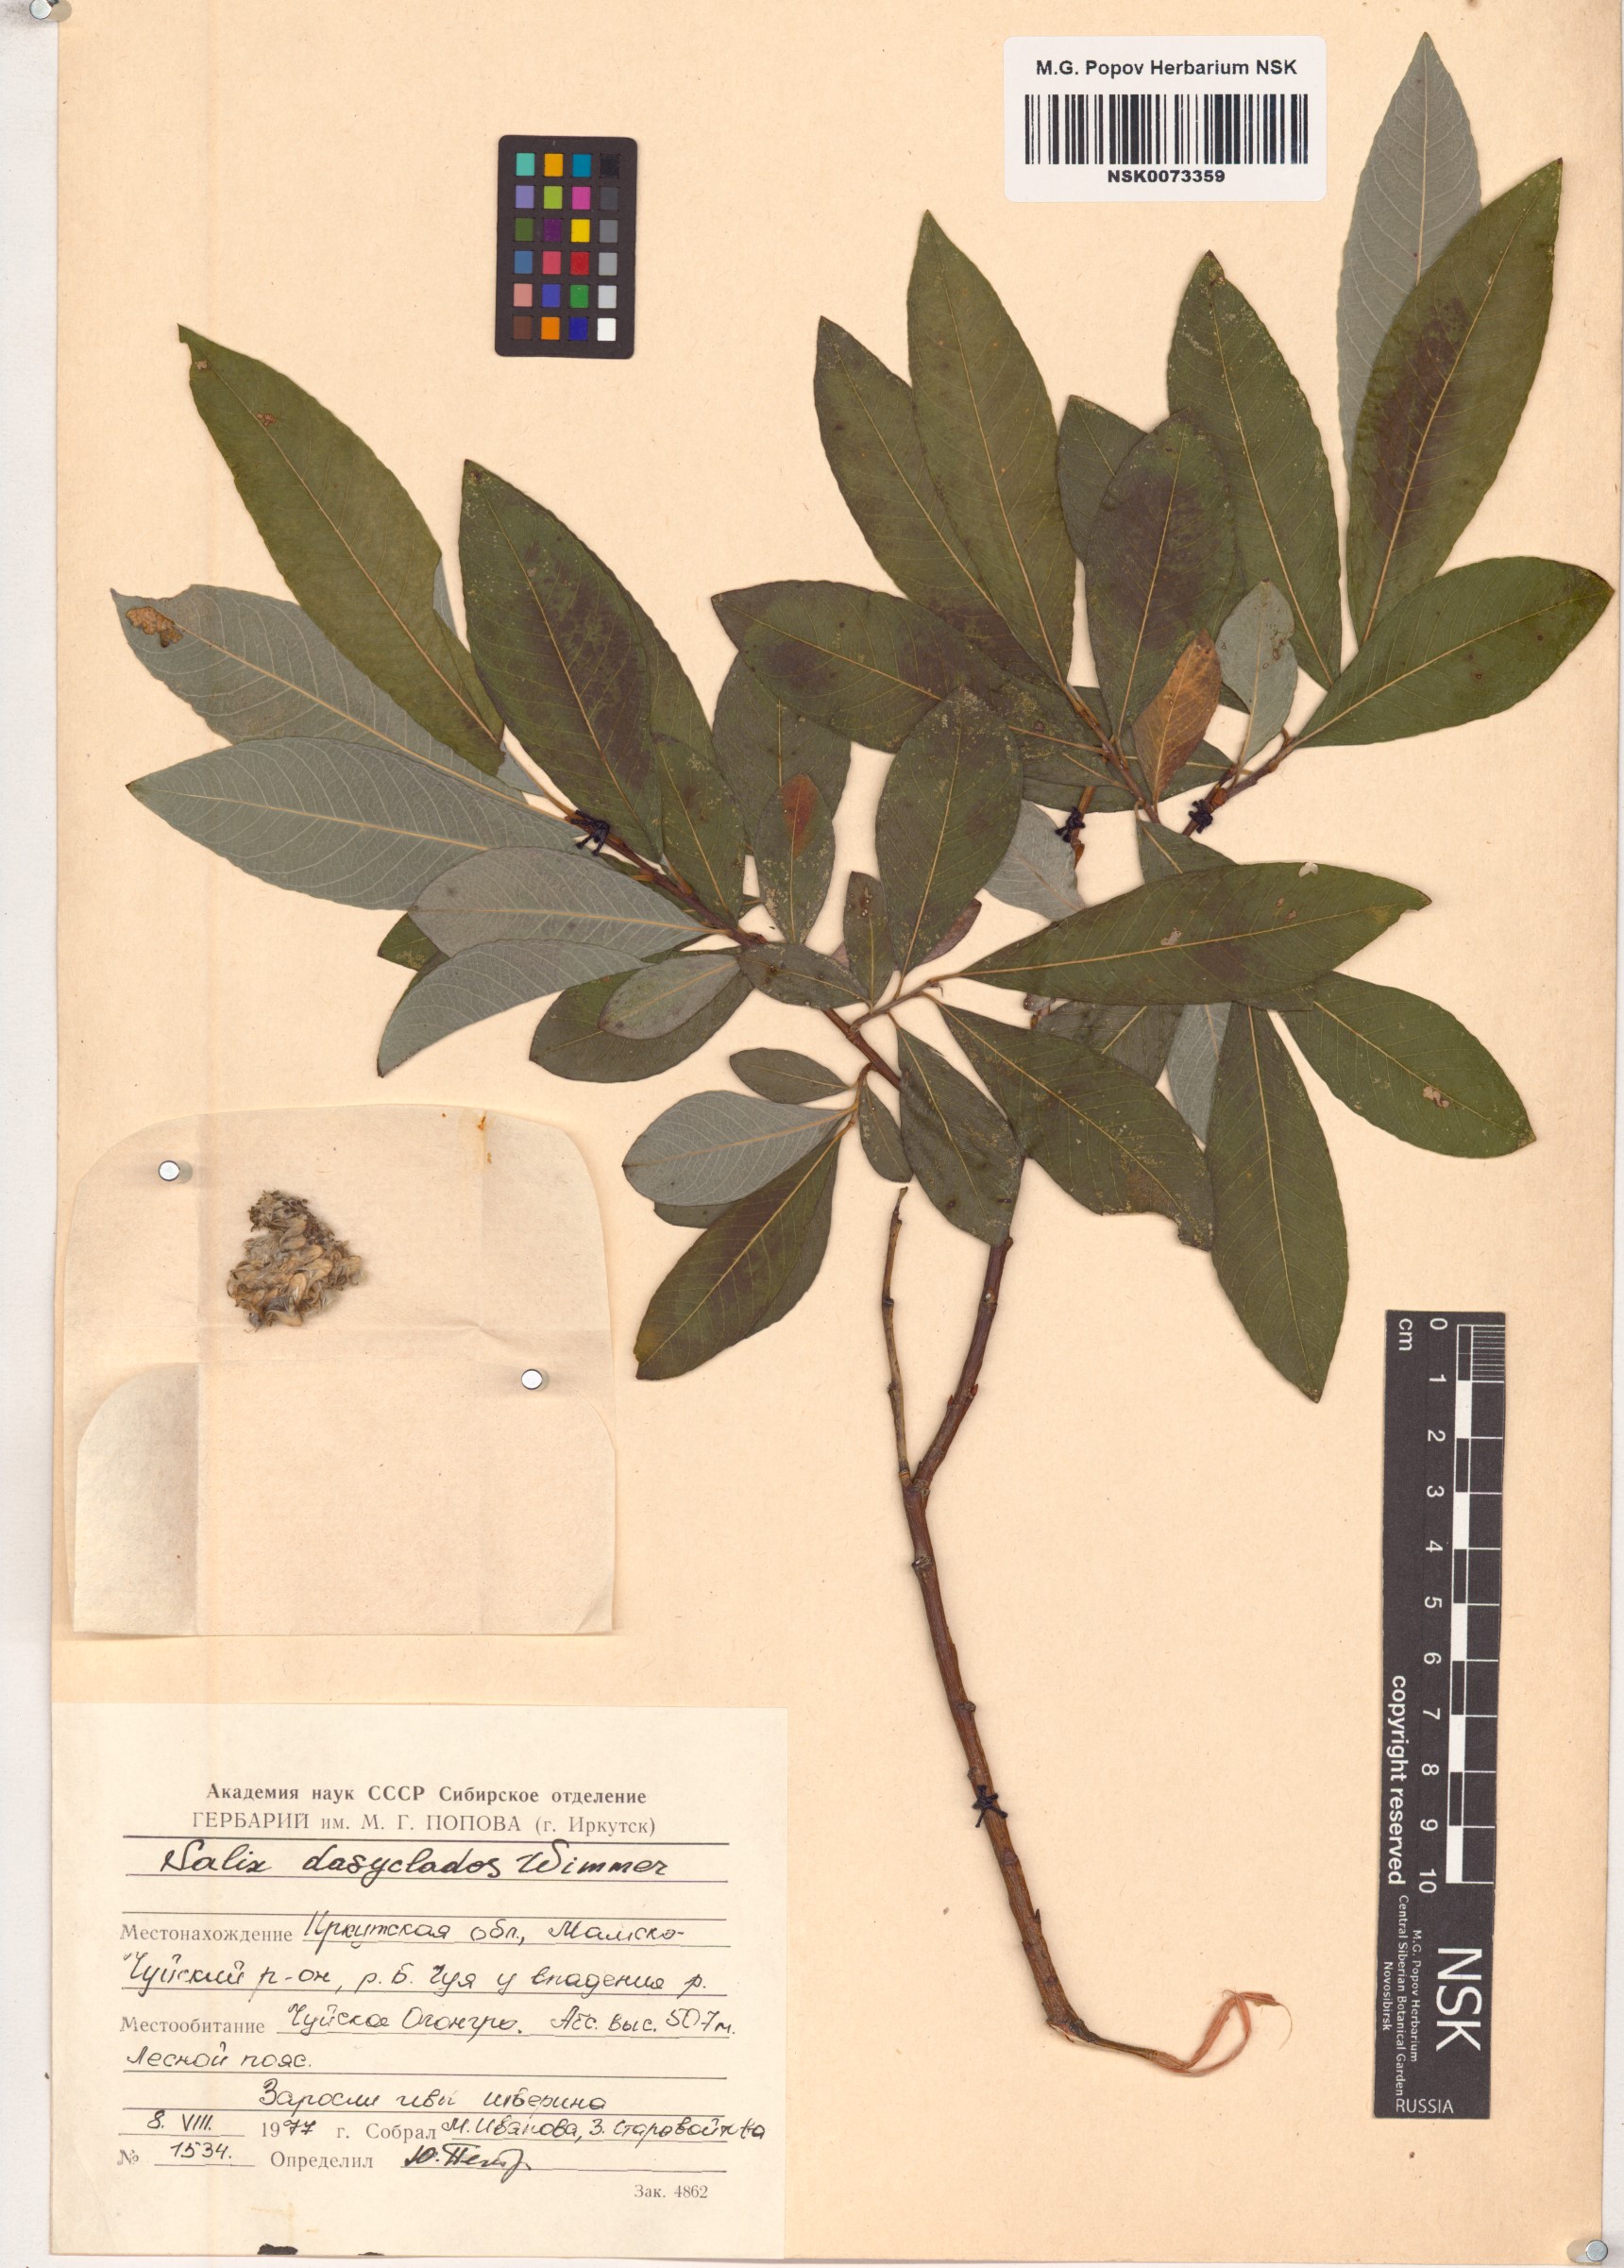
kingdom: Plantae
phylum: Tracheophyta
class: Magnoliopsida
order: Malpighiales
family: Salicaceae
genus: Salix
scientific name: Salix gmelinii
